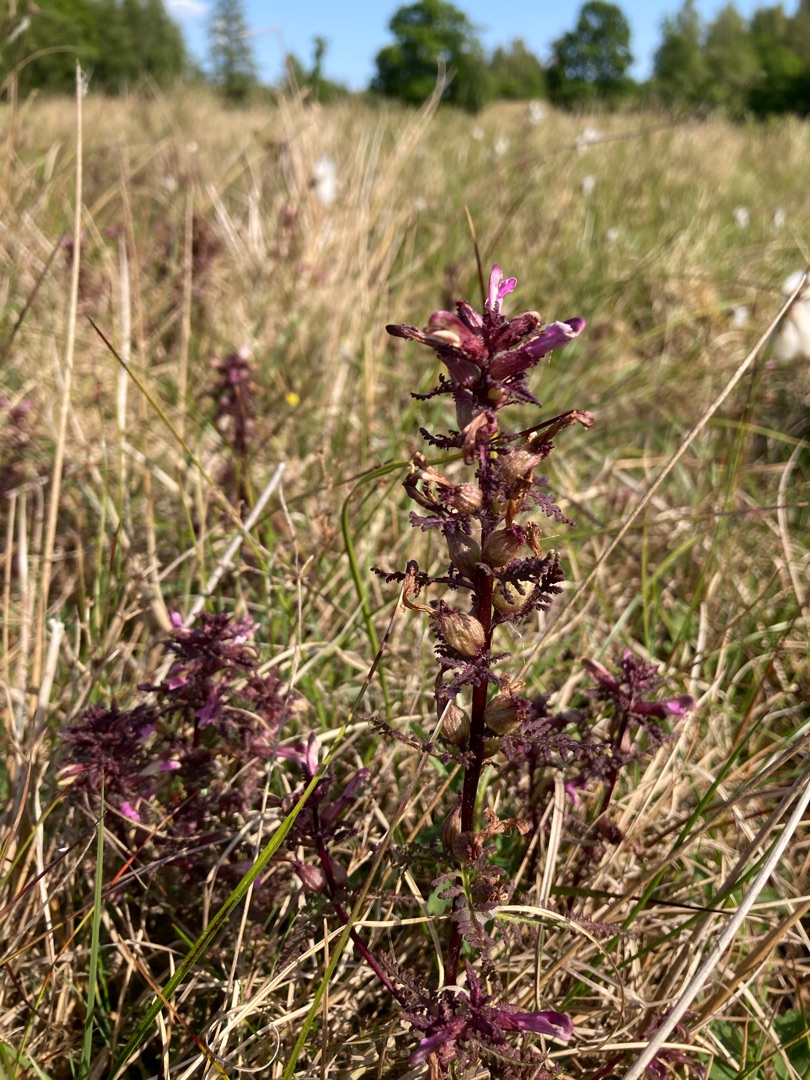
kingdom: Plantae
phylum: Tracheophyta
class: Magnoliopsida
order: Lamiales
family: Orobanchaceae
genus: Pedicularis
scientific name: Pedicularis palustris
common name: Eng-troldurt
